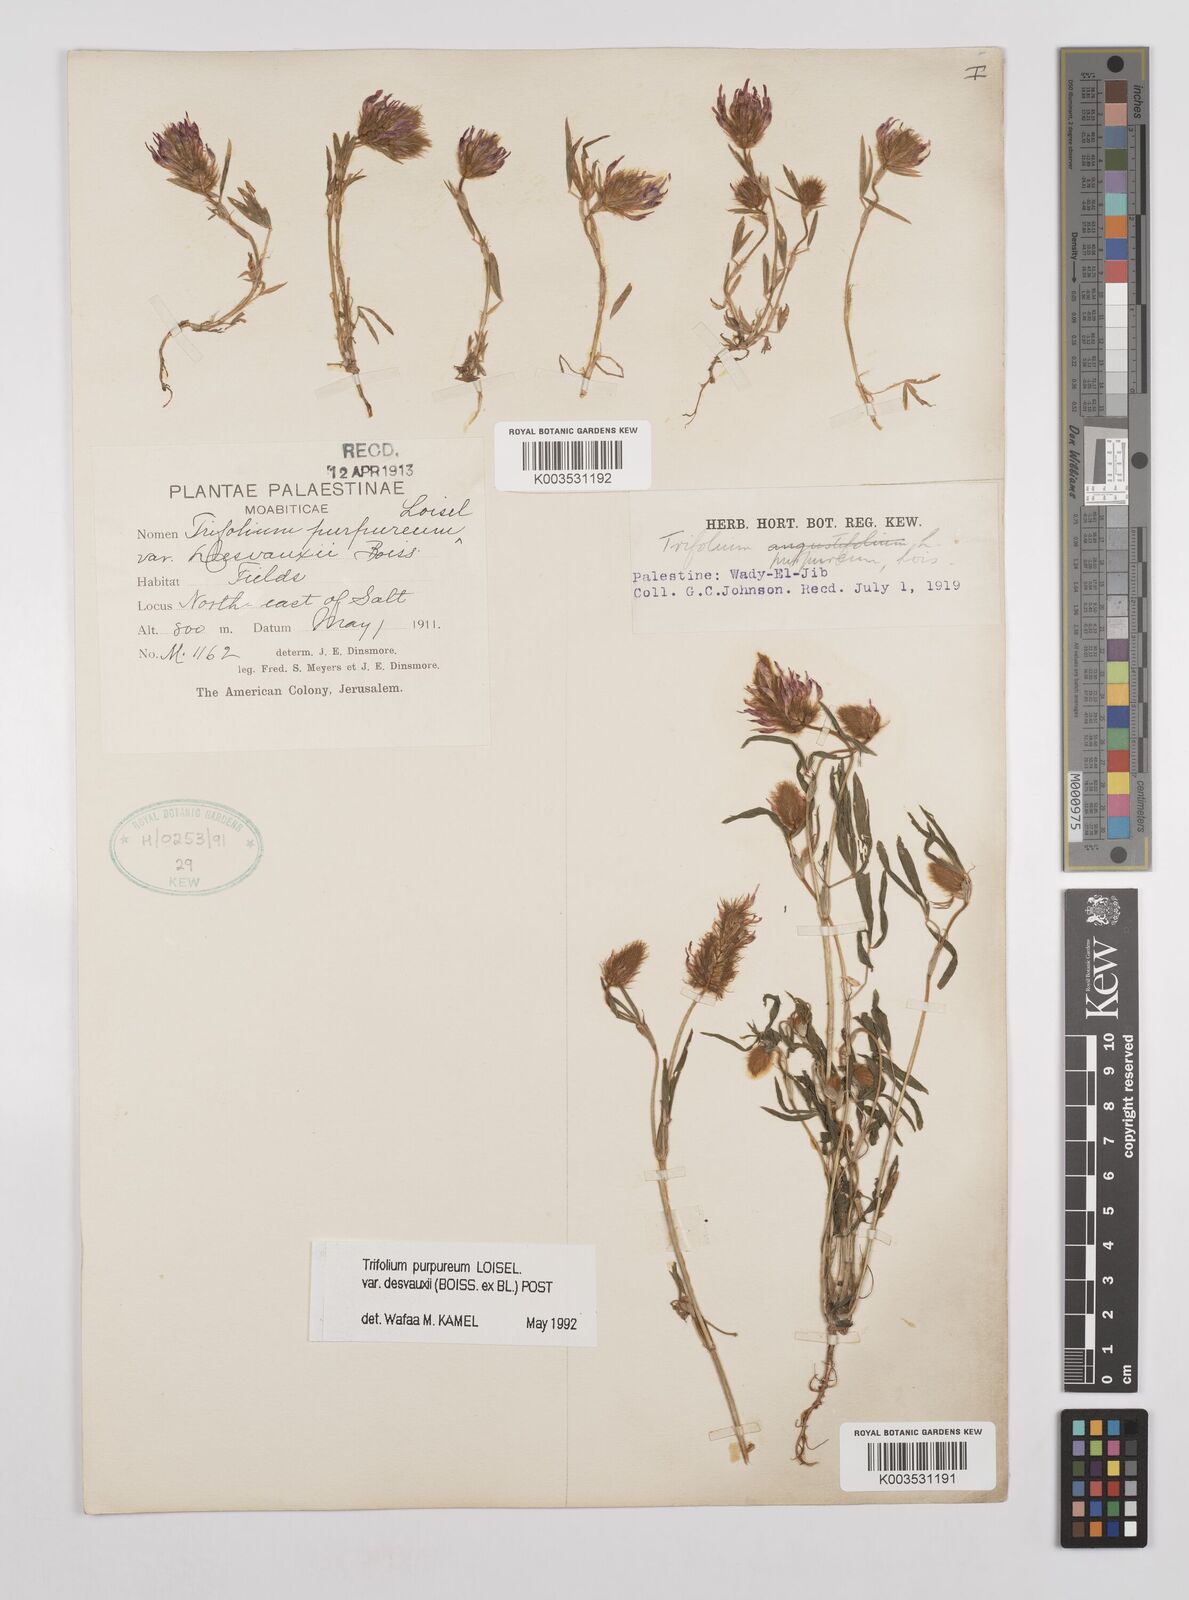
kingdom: Plantae
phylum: Tracheophyta
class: Magnoliopsida
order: Fabales
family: Fabaceae
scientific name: Fabaceae
